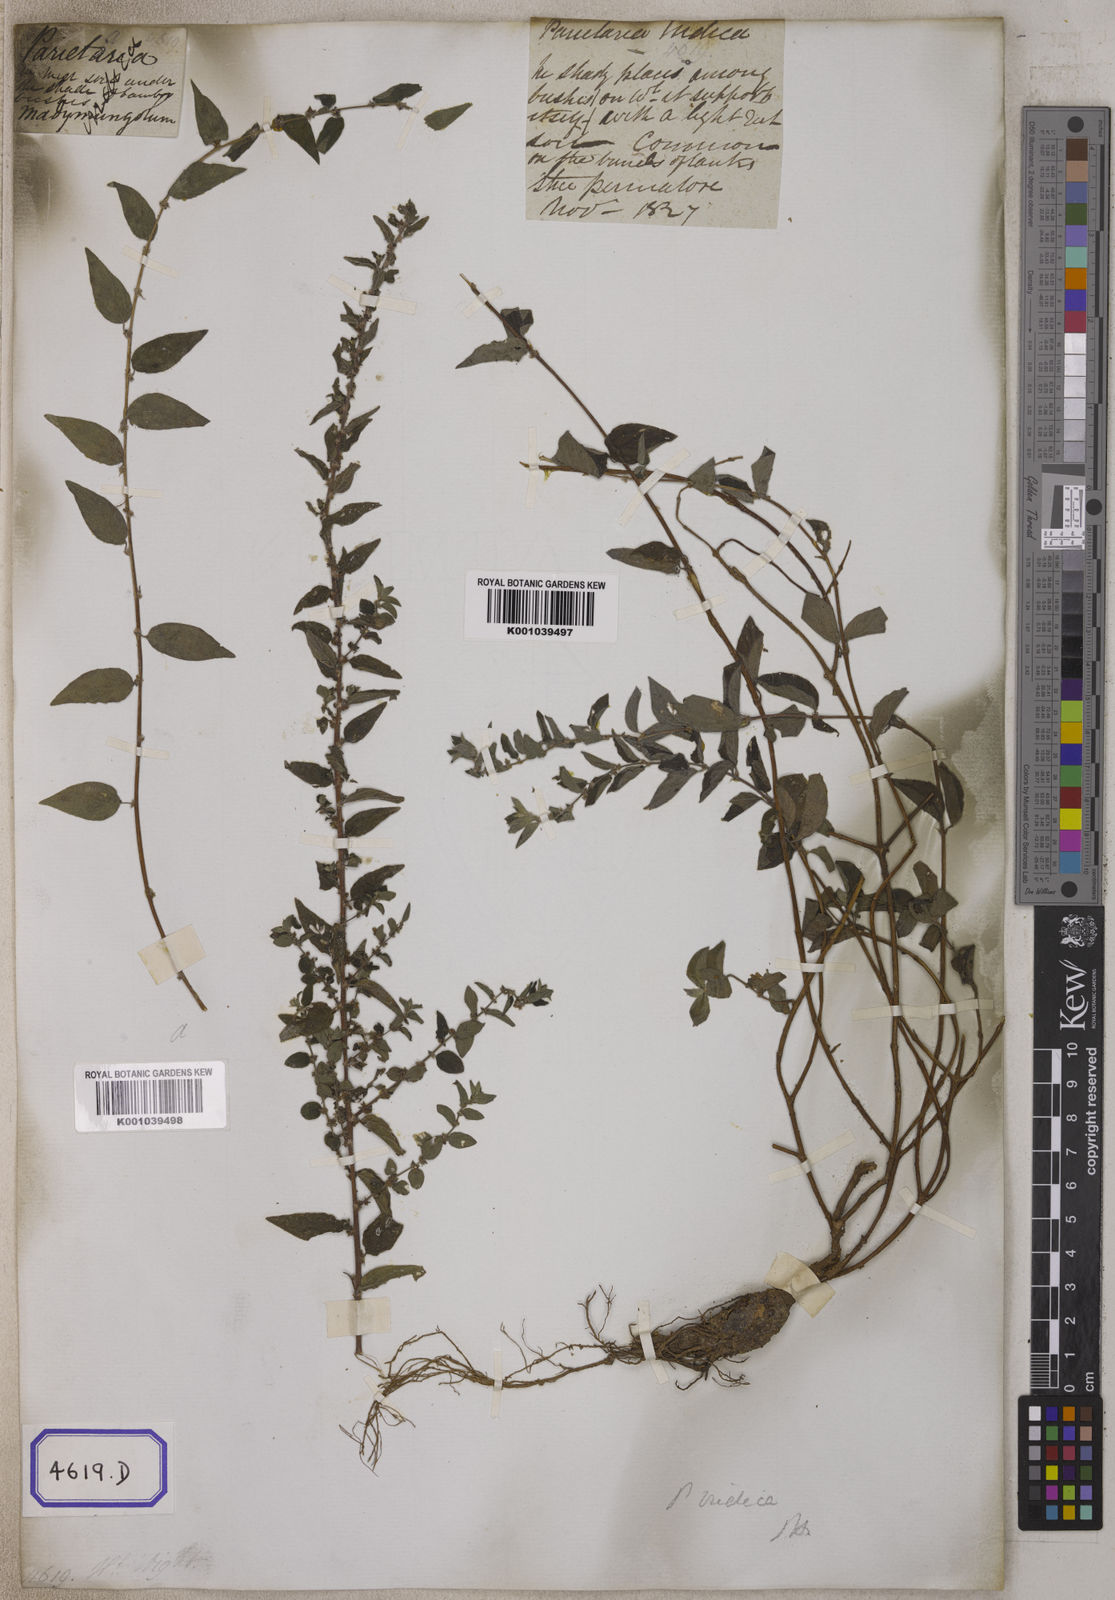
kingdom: Plantae
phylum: Tracheophyta
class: Magnoliopsida
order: Rosales
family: Urticaceae
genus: Pouzolzia
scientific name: Pouzolzia zeylanica
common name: Graceful pouzolzsbush
